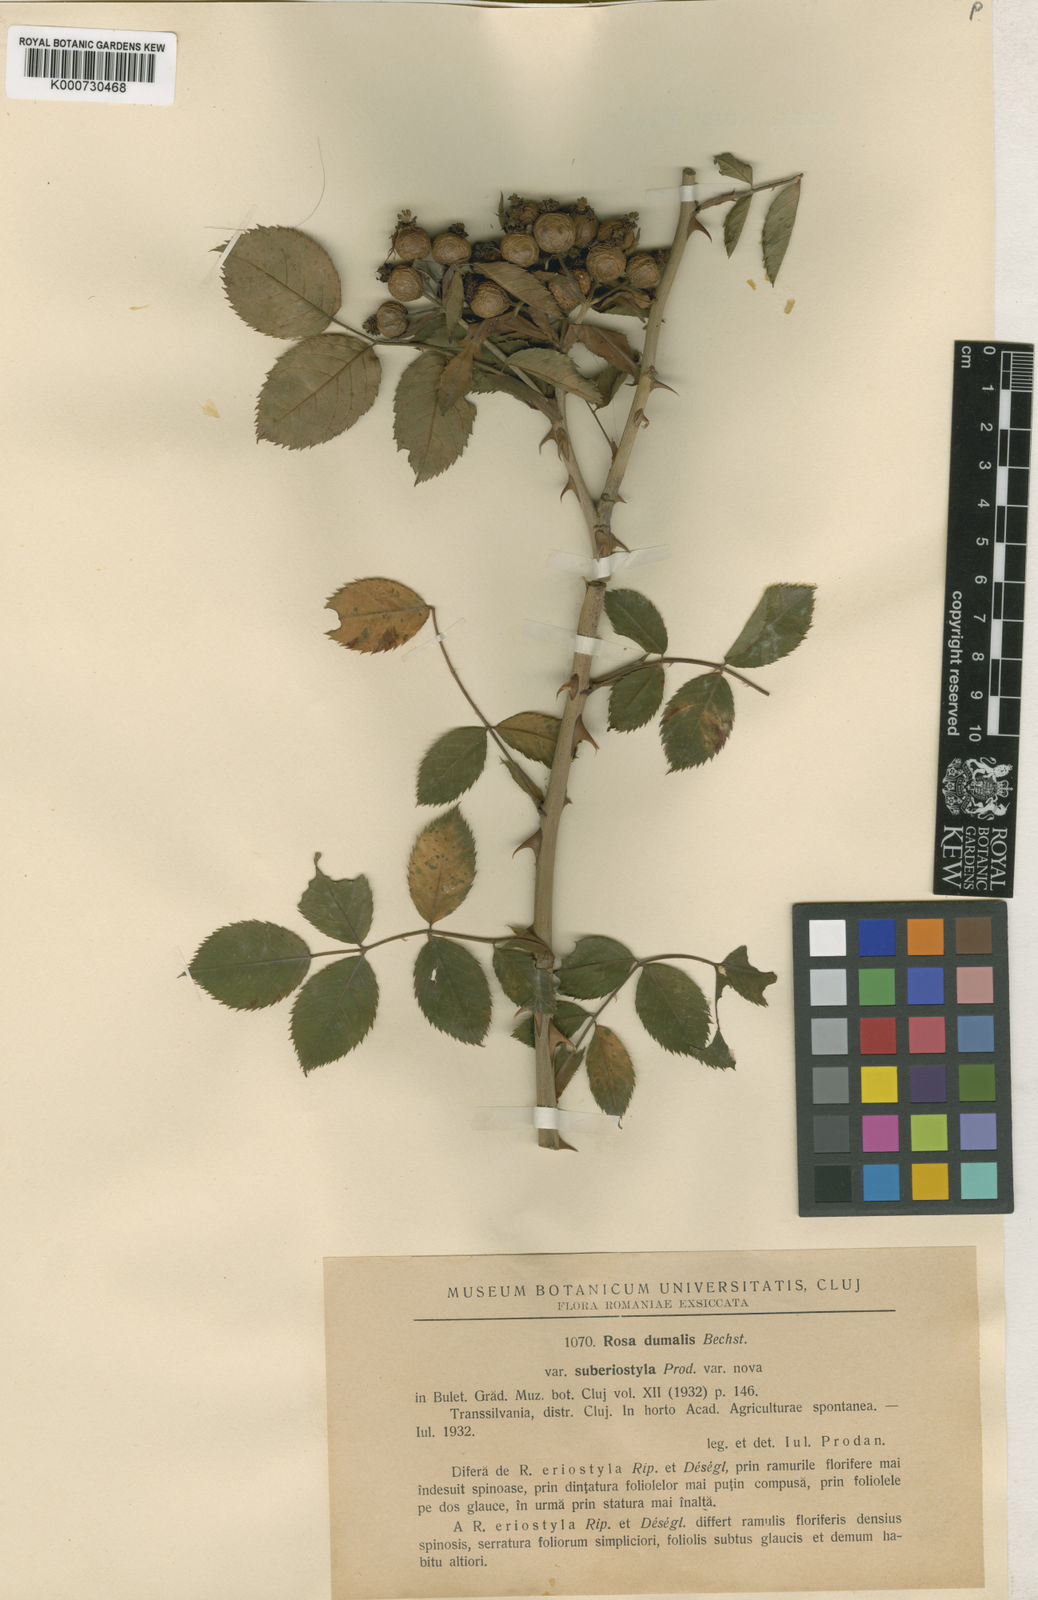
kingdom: Plantae
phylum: Tracheophyta
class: Magnoliopsida
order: Rosales
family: Rosaceae
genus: Rosa
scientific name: Rosa canina
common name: Dog rose
